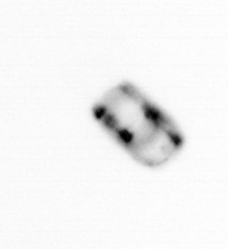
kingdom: Chromista
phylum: Ochrophyta
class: Bacillariophyceae
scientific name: Bacillariophyceae
